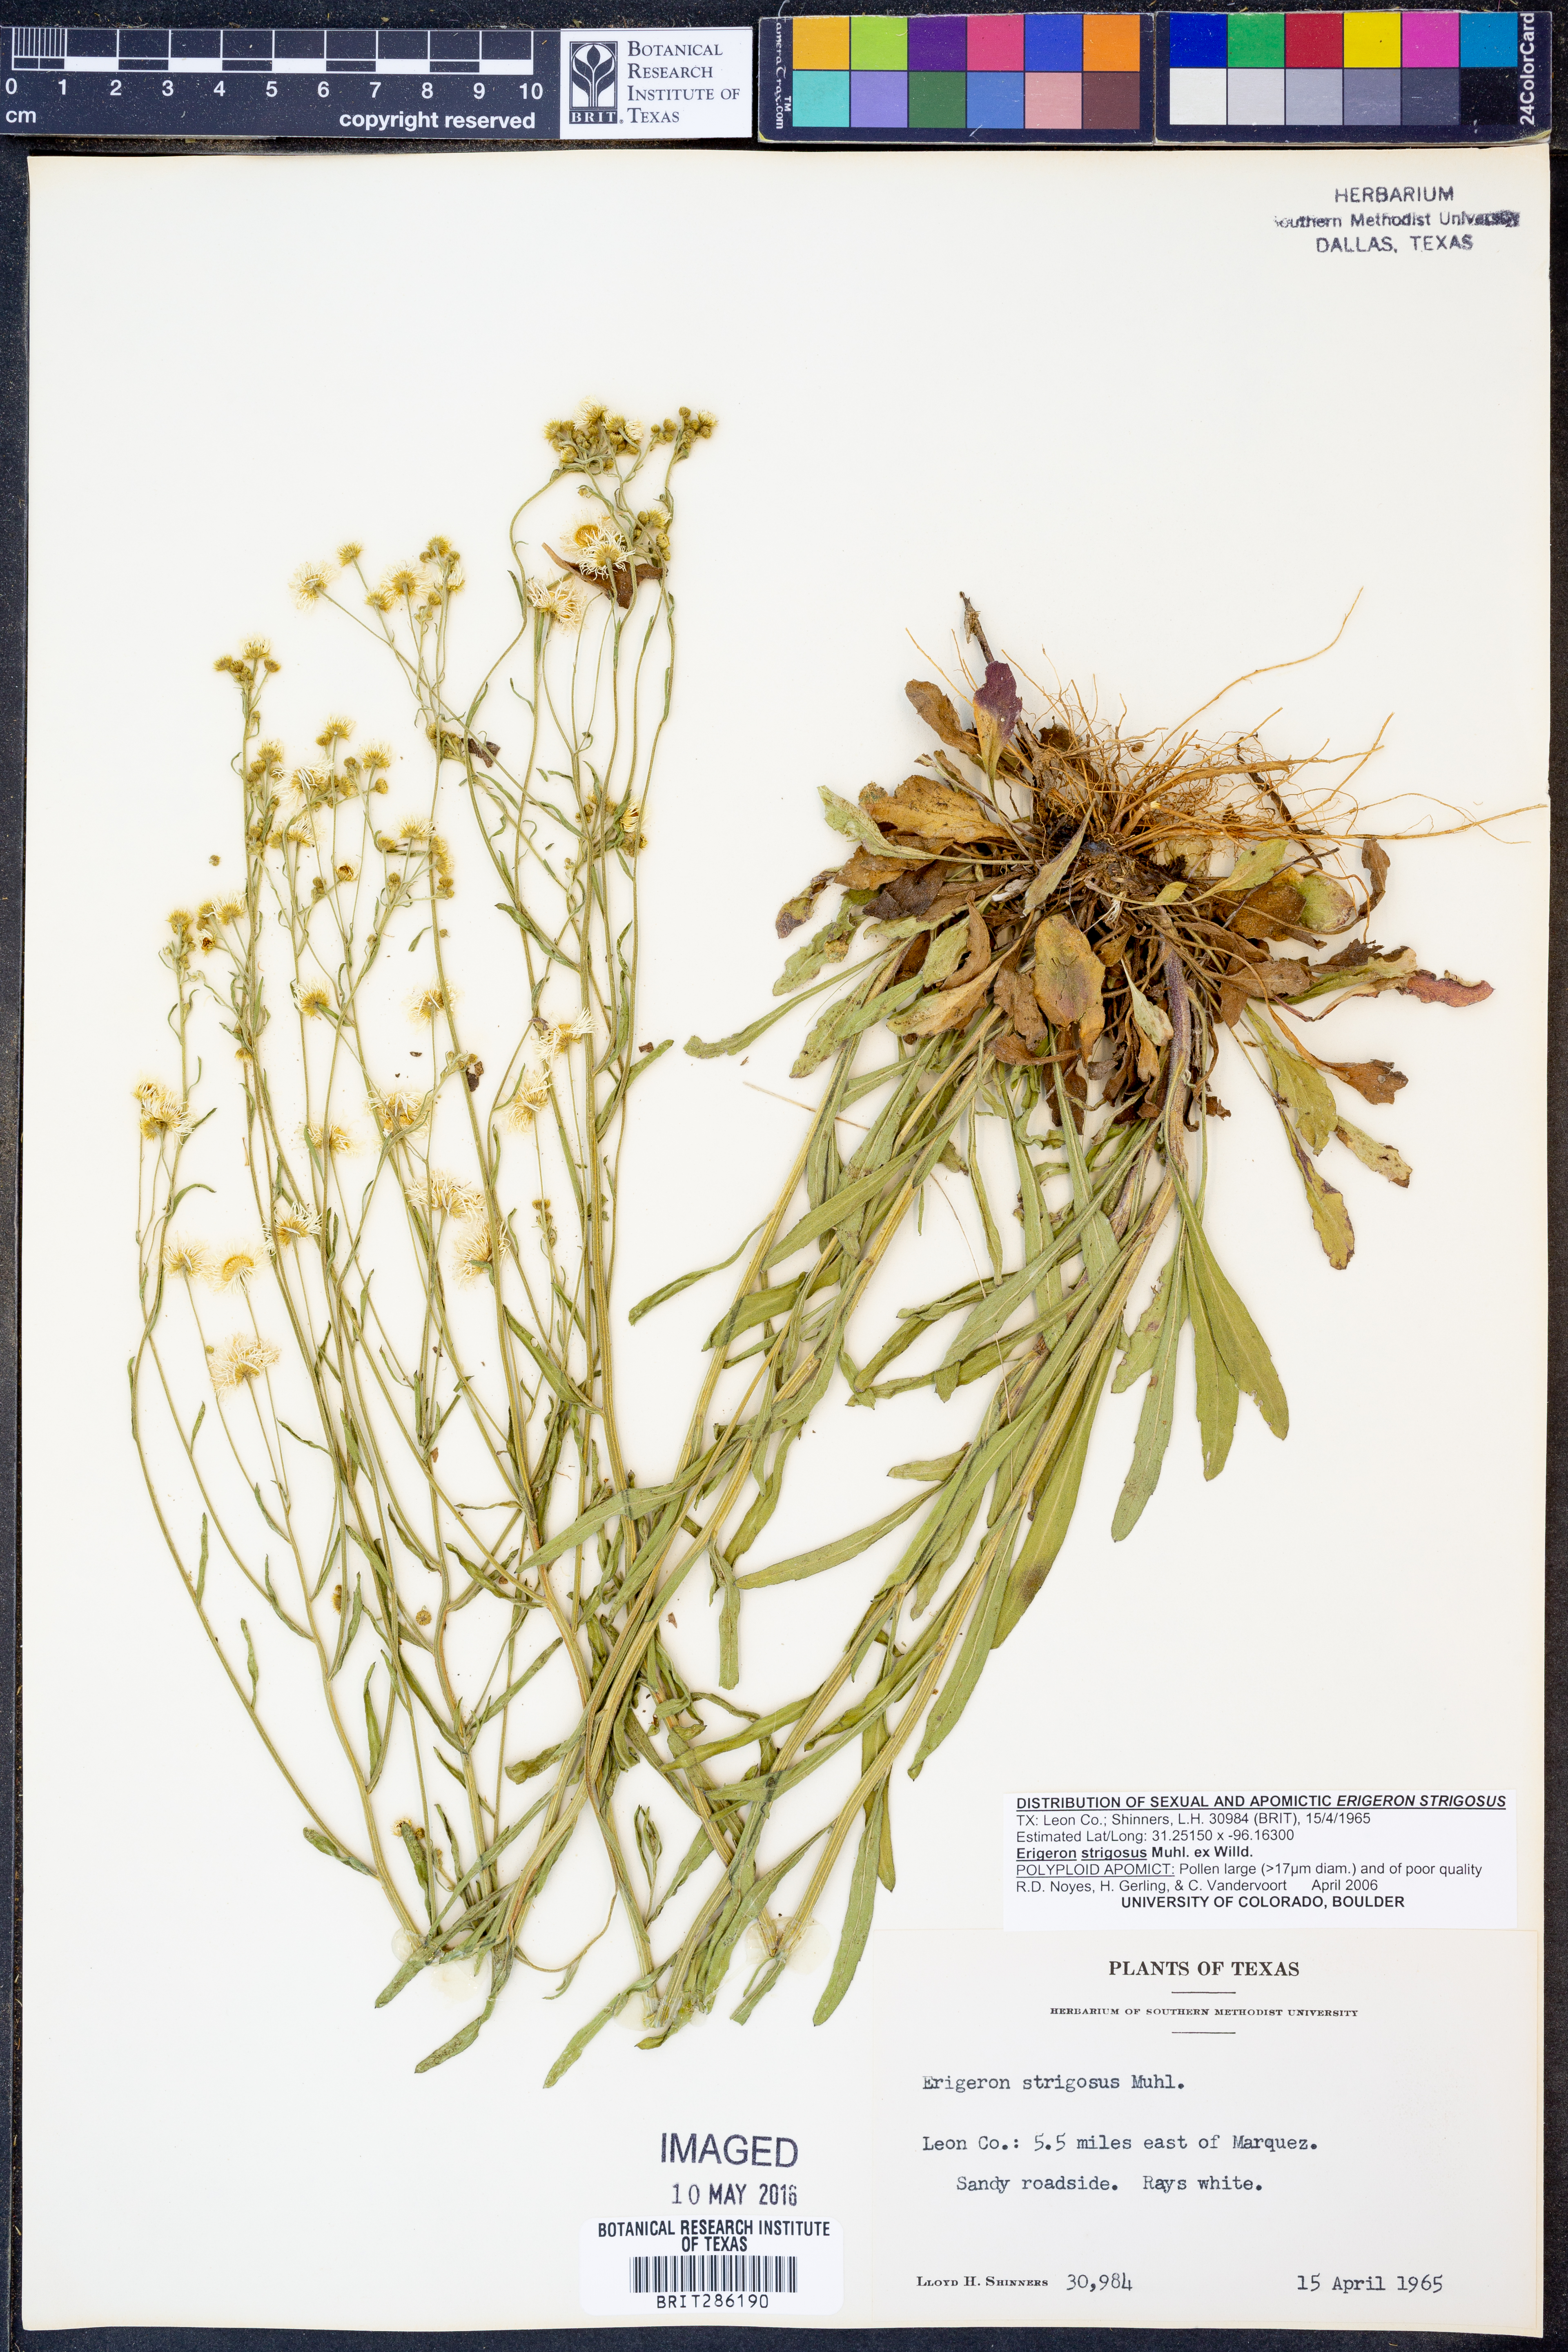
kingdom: Plantae
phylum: Tracheophyta
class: Magnoliopsida
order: Asterales
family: Asteraceae
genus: Erigeron
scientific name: Erigeron strigosus
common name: Common eastern fleabane
